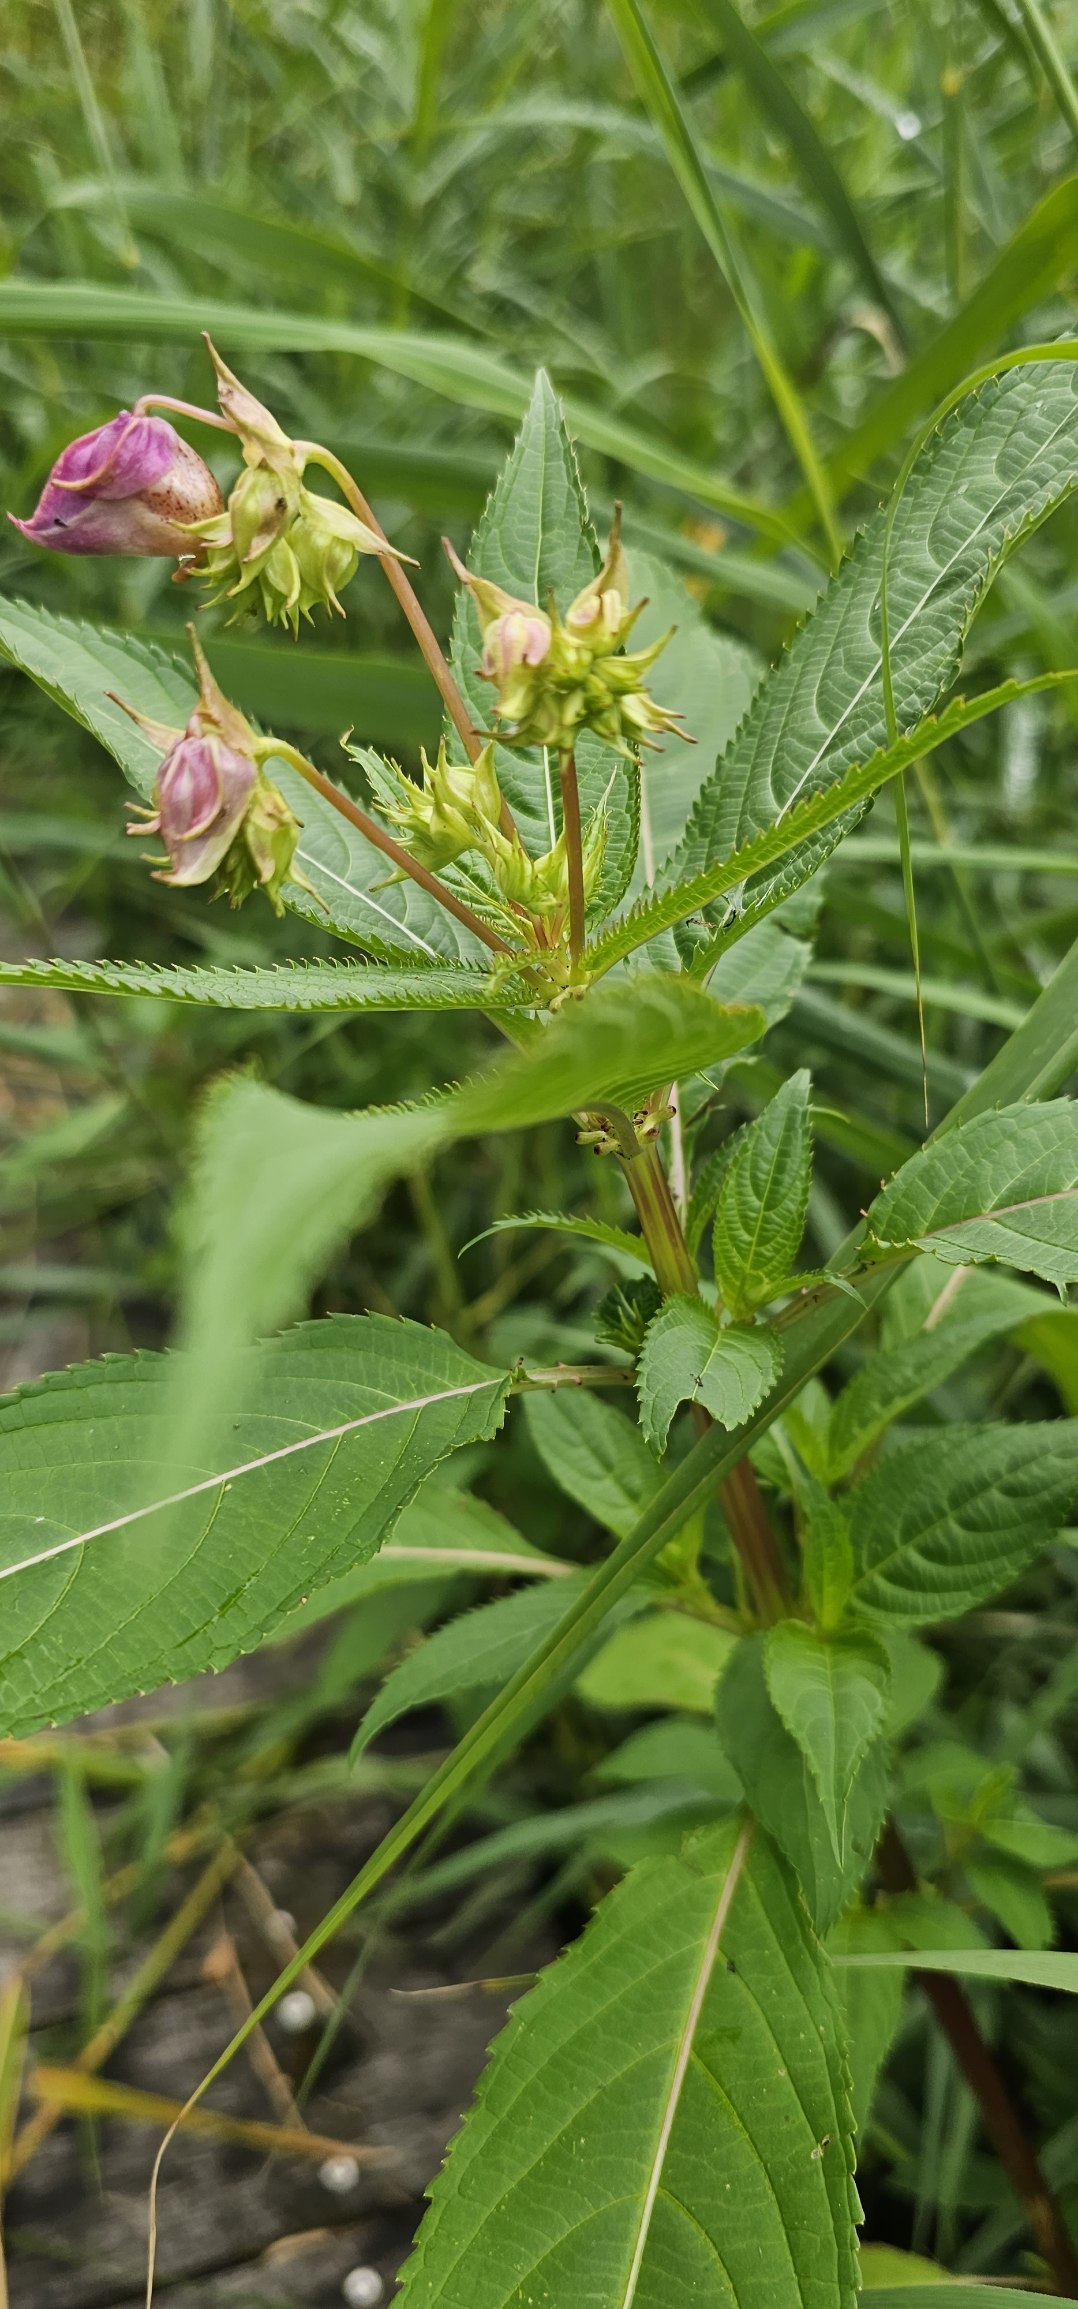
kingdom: Plantae
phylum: Tracheophyta
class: Magnoliopsida
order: Ericales
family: Balsaminaceae
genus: Impatiens
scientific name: Impatiens glandulifera
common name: Kæmpe-balsamin
